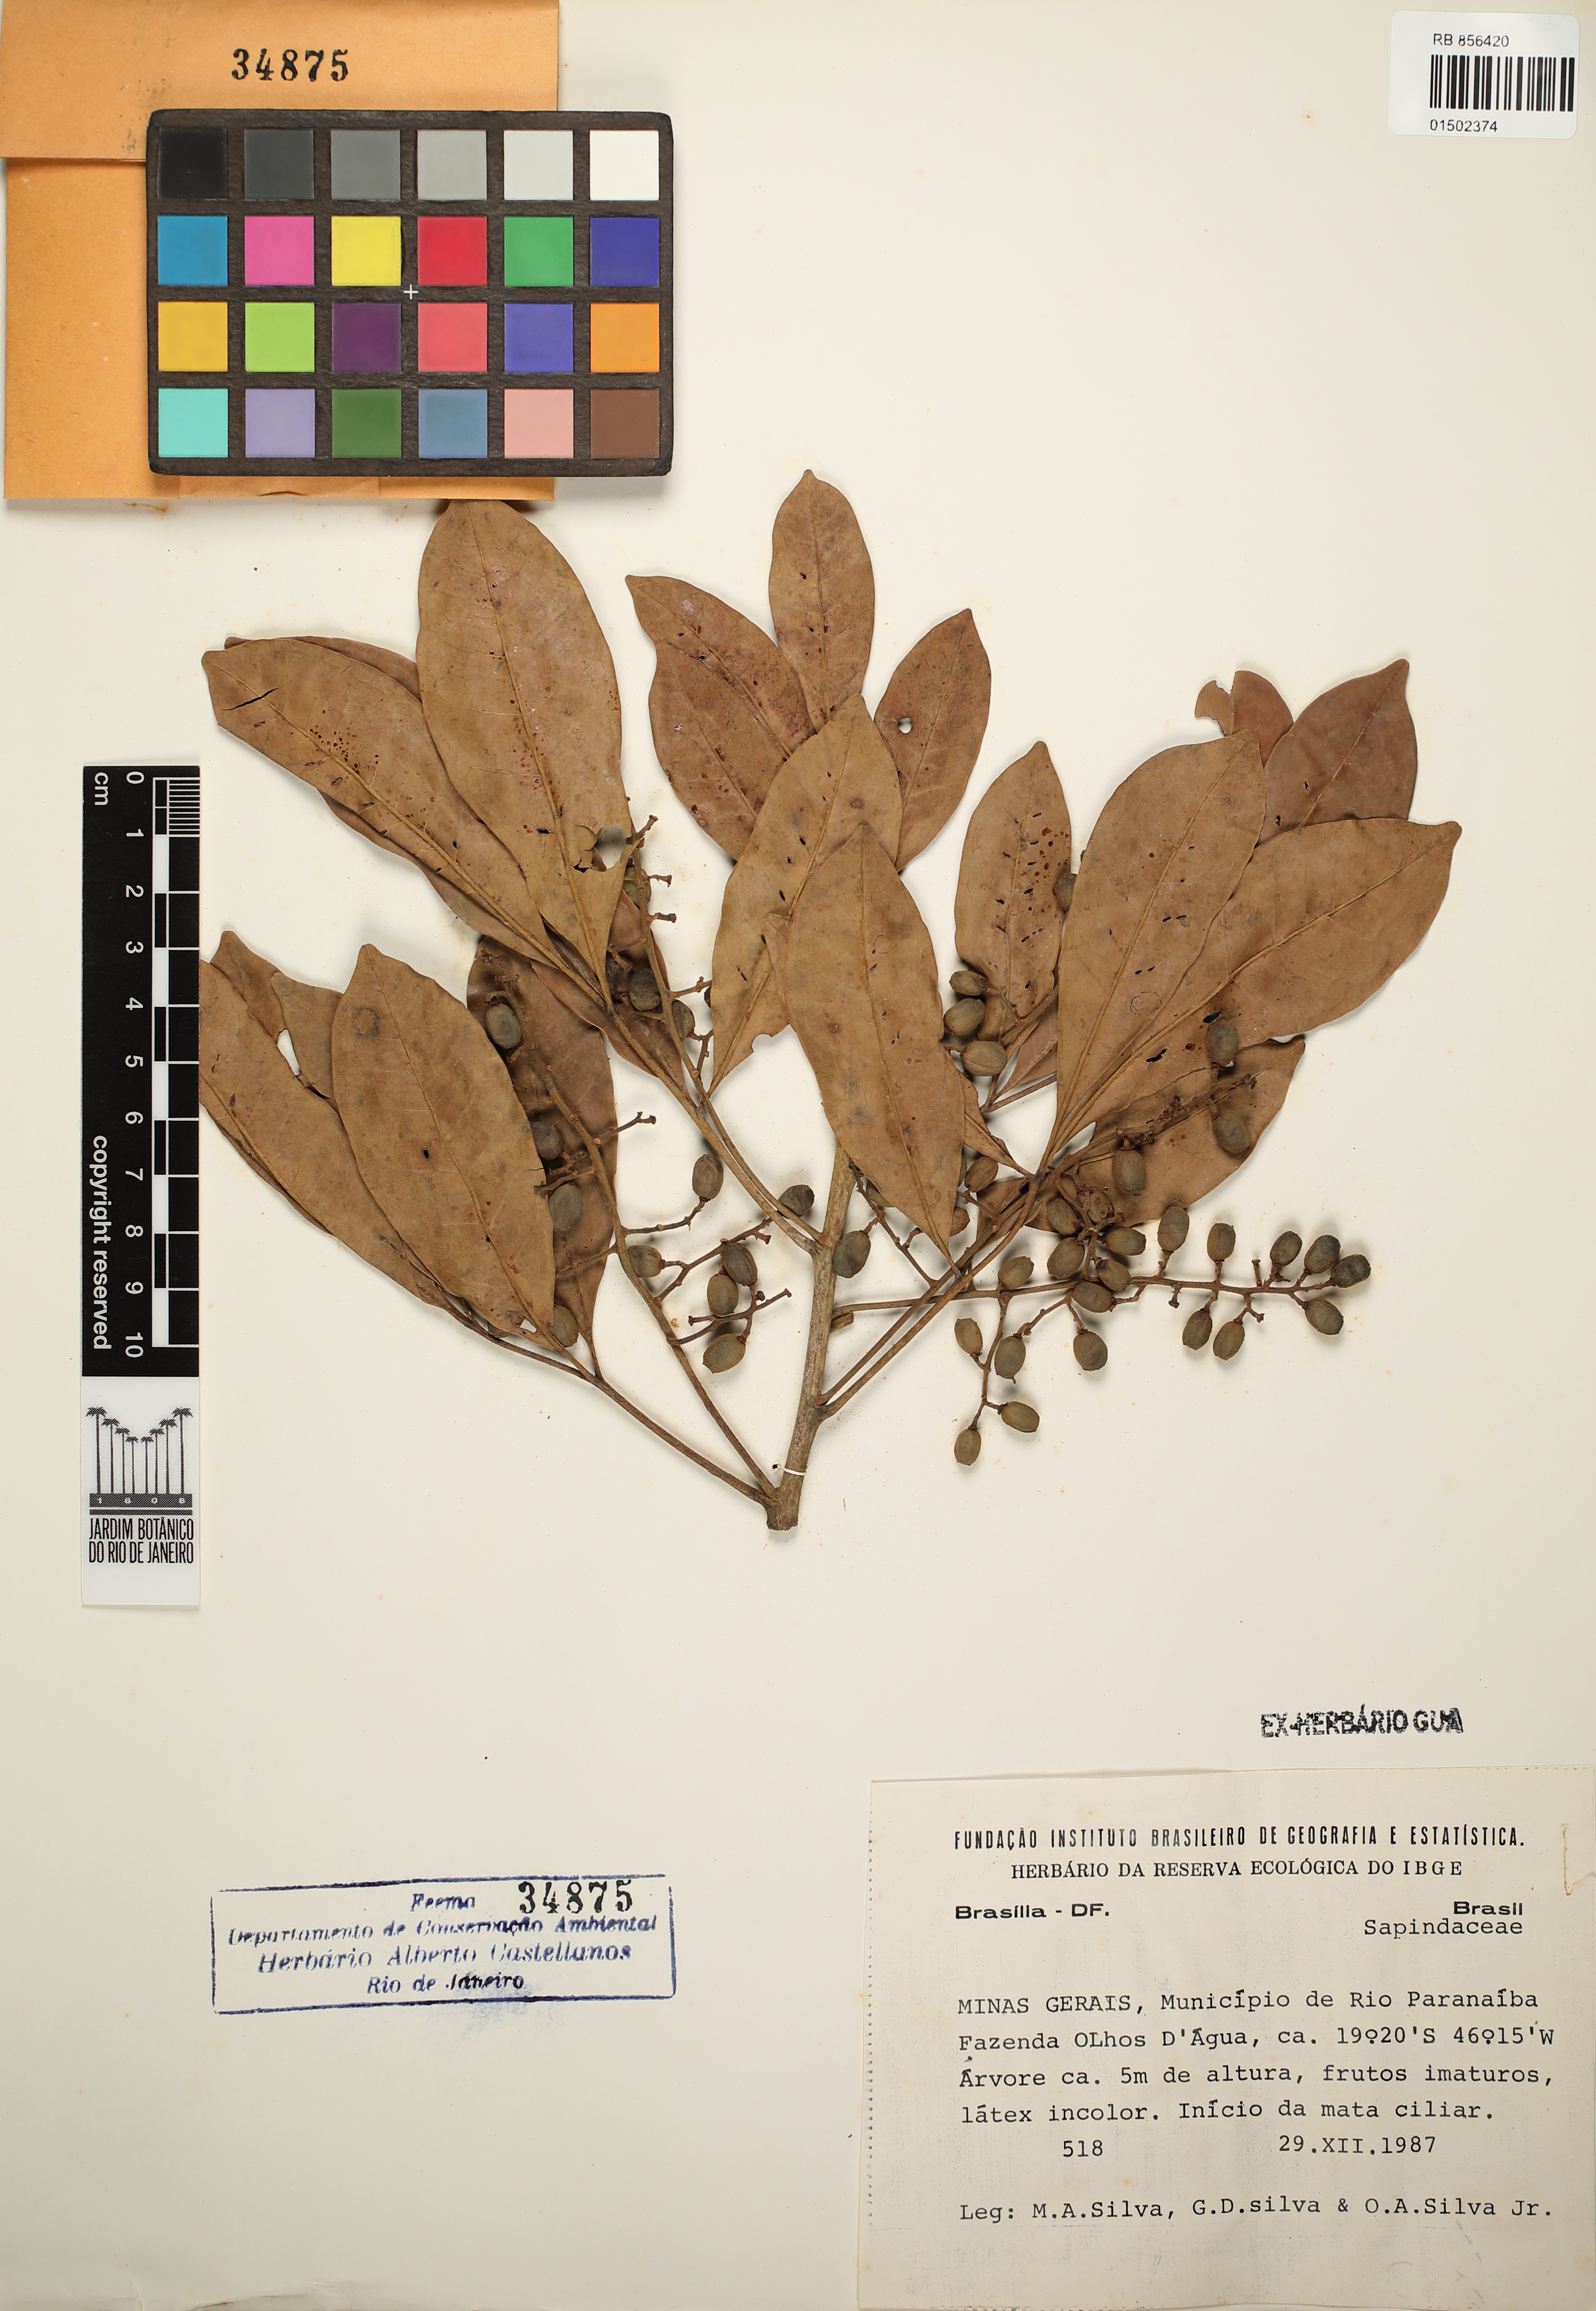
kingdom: Plantae
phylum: Tracheophyta
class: Magnoliopsida
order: Sapindales
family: Sapindaceae
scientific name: Sapindaceae
